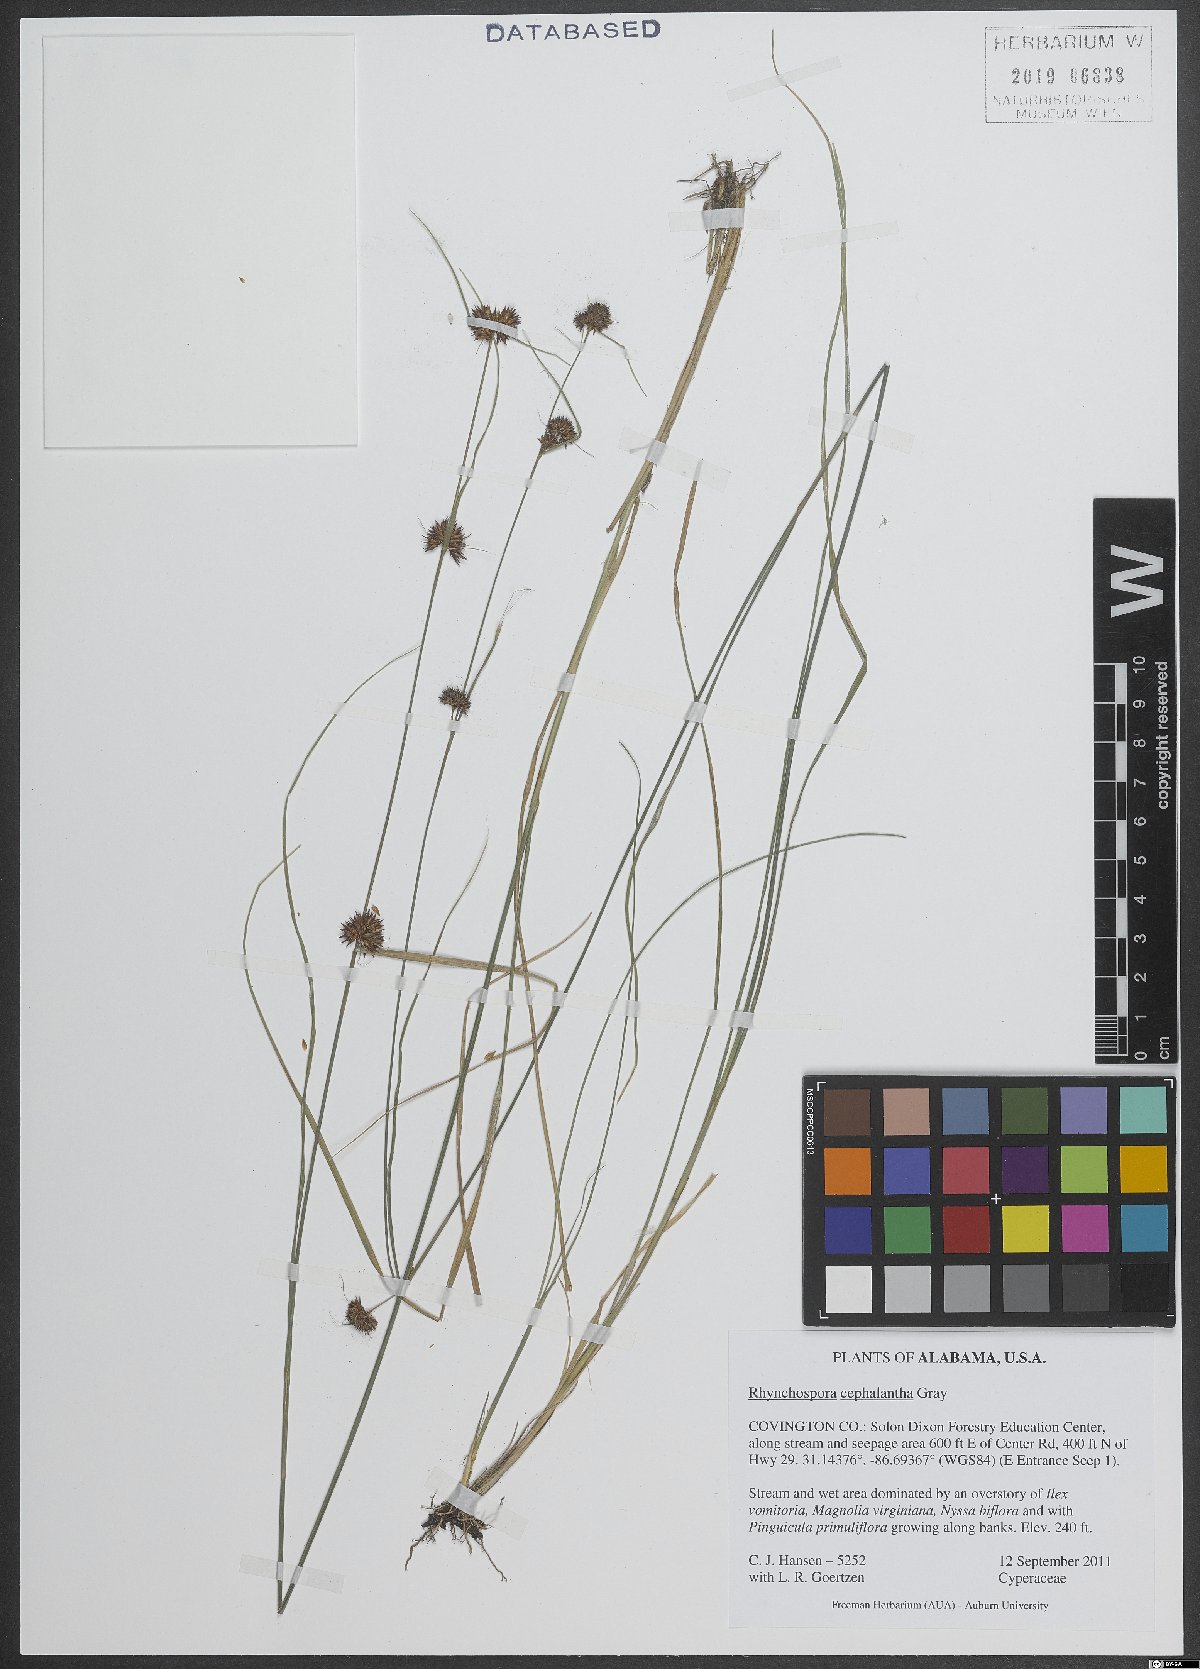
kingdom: Plantae
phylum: Tracheophyta
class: Liliopsida
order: Poales
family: Cyperaceae
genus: Rhynchospora
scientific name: Rhynchospora cephalantha
